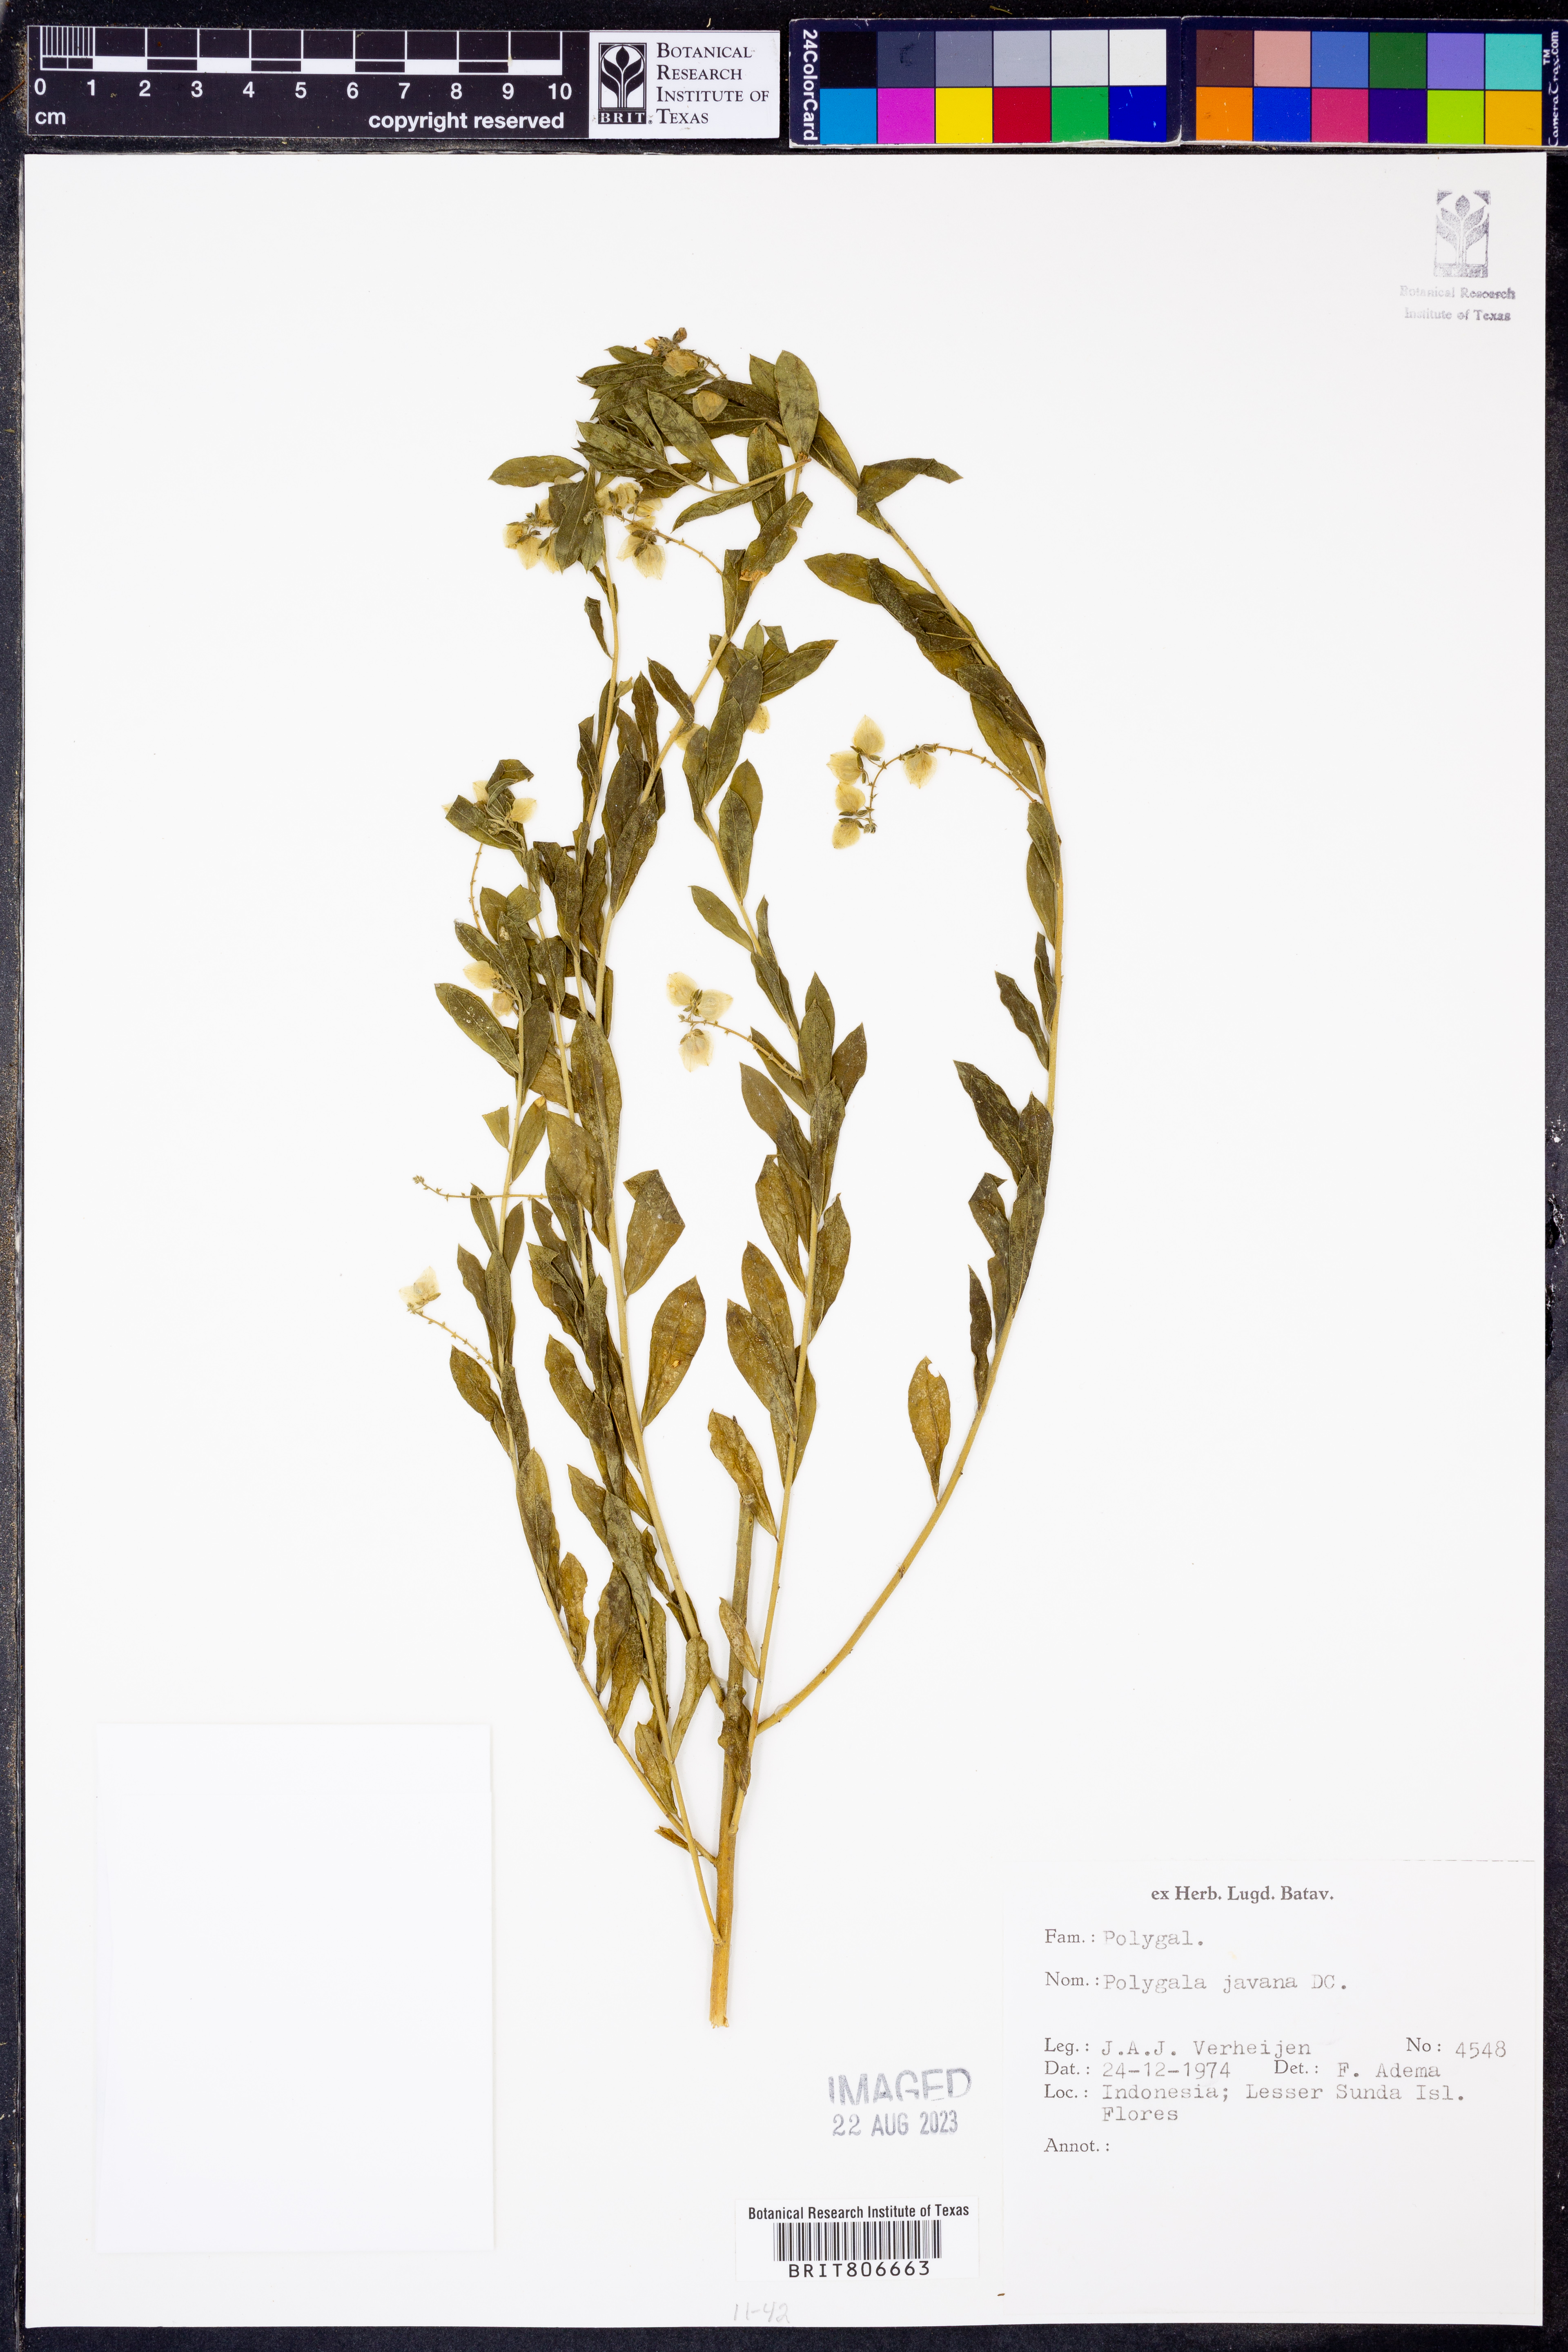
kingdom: Plantae
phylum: Tracheophyta
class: Magnoliopsida
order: Fabales
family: Polygalaceae
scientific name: Polygalaceae
